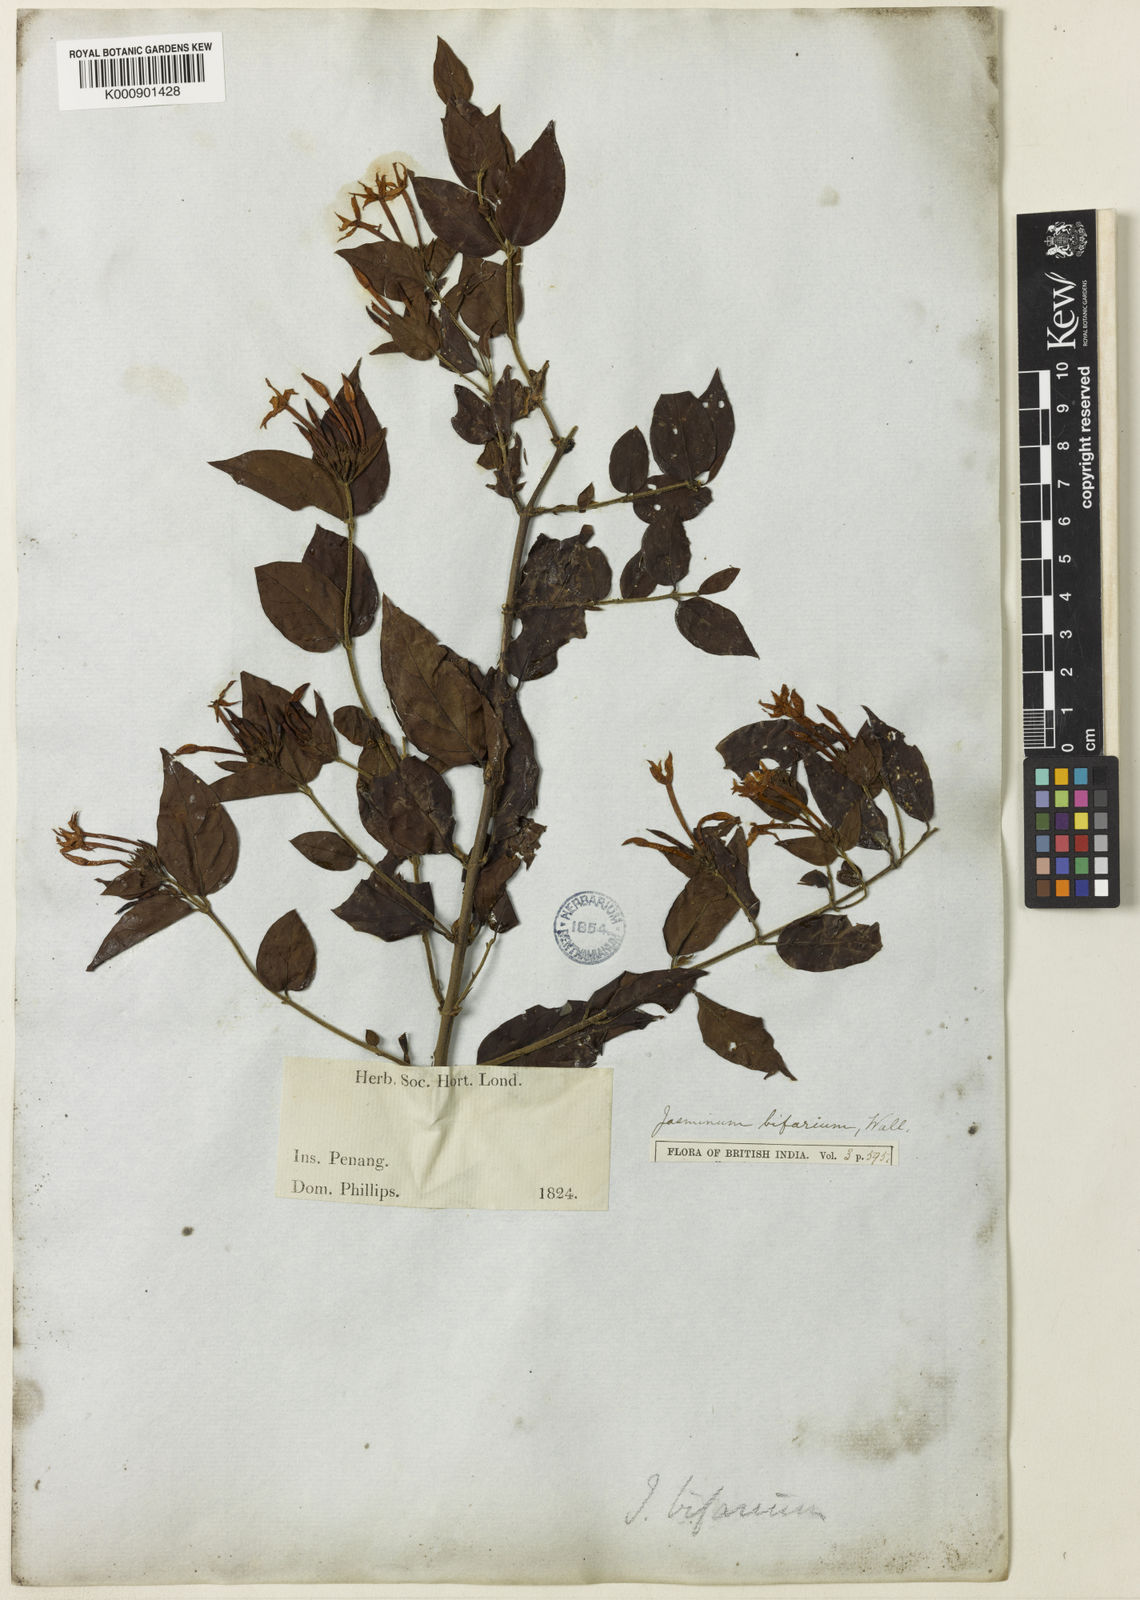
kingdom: Plantae
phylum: Tracheophyta
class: Magnoliopsida
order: Lamiales
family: Oleaceae
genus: Jasminum
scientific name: Jasminum elongatum
